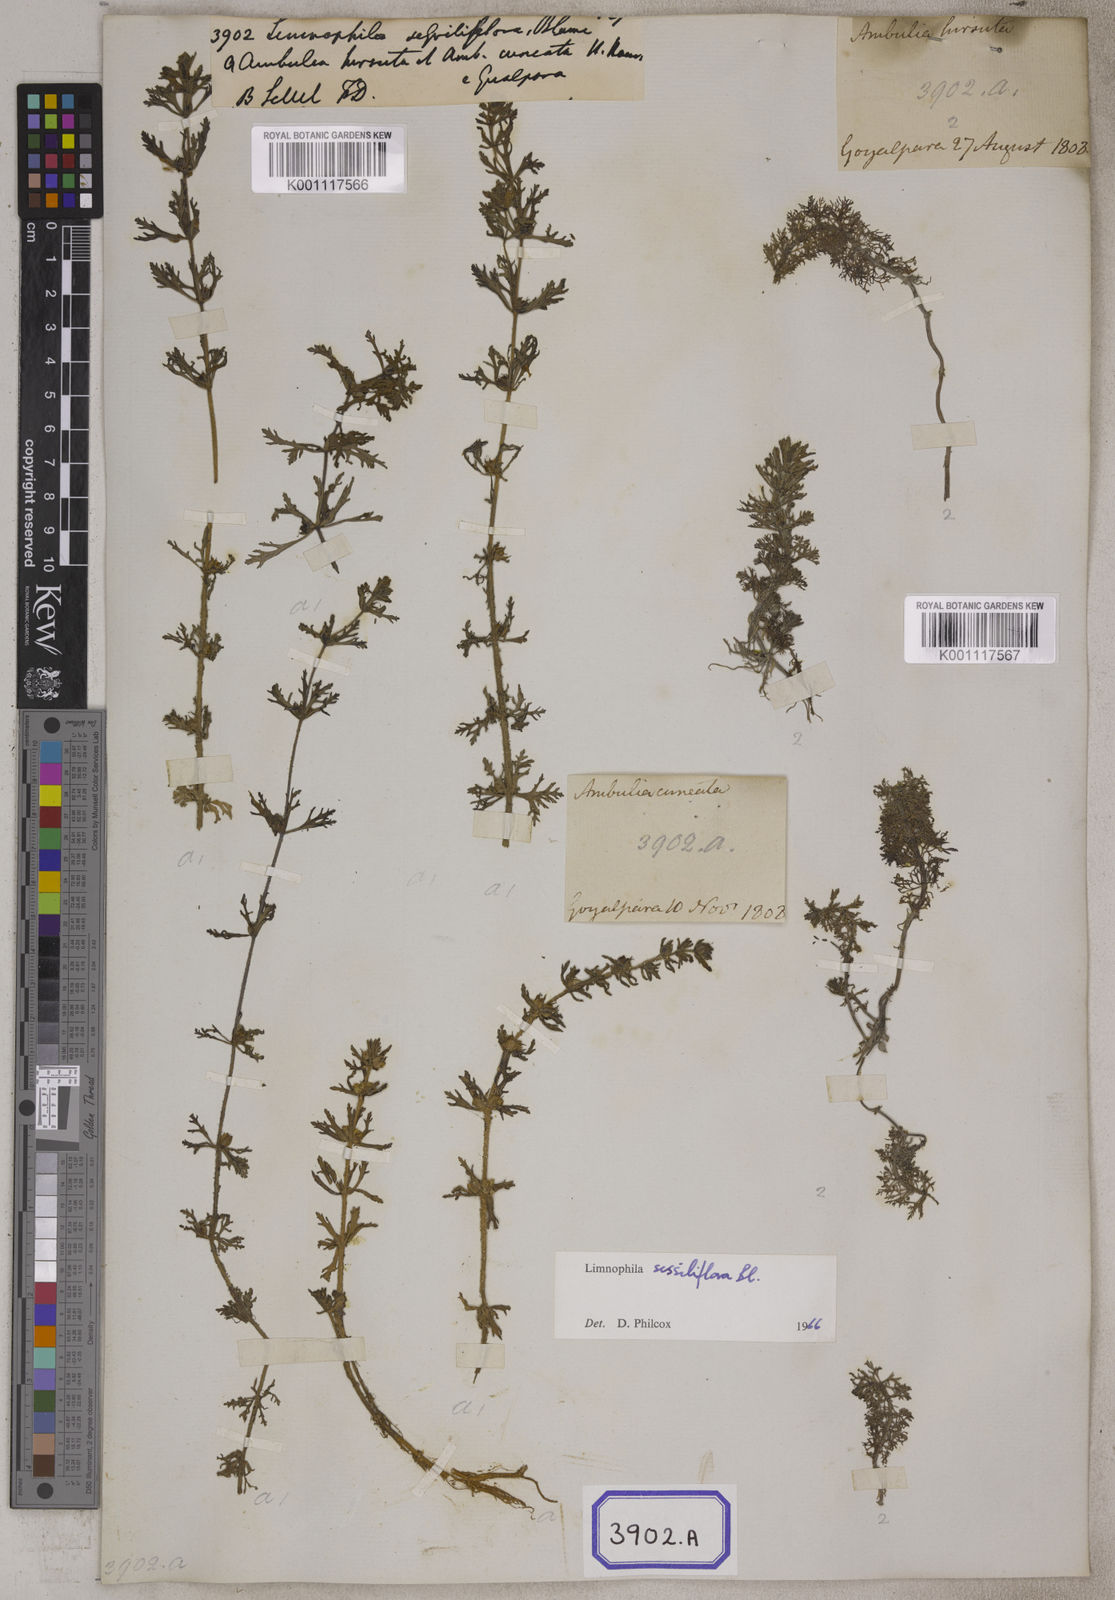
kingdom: Plantae
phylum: Tracheophyta
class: Magnoliopsida
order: Lamiales
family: Plantaginaceae
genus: Limnophila
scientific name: Limnophila sessiliflora
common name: Asian marshweed
